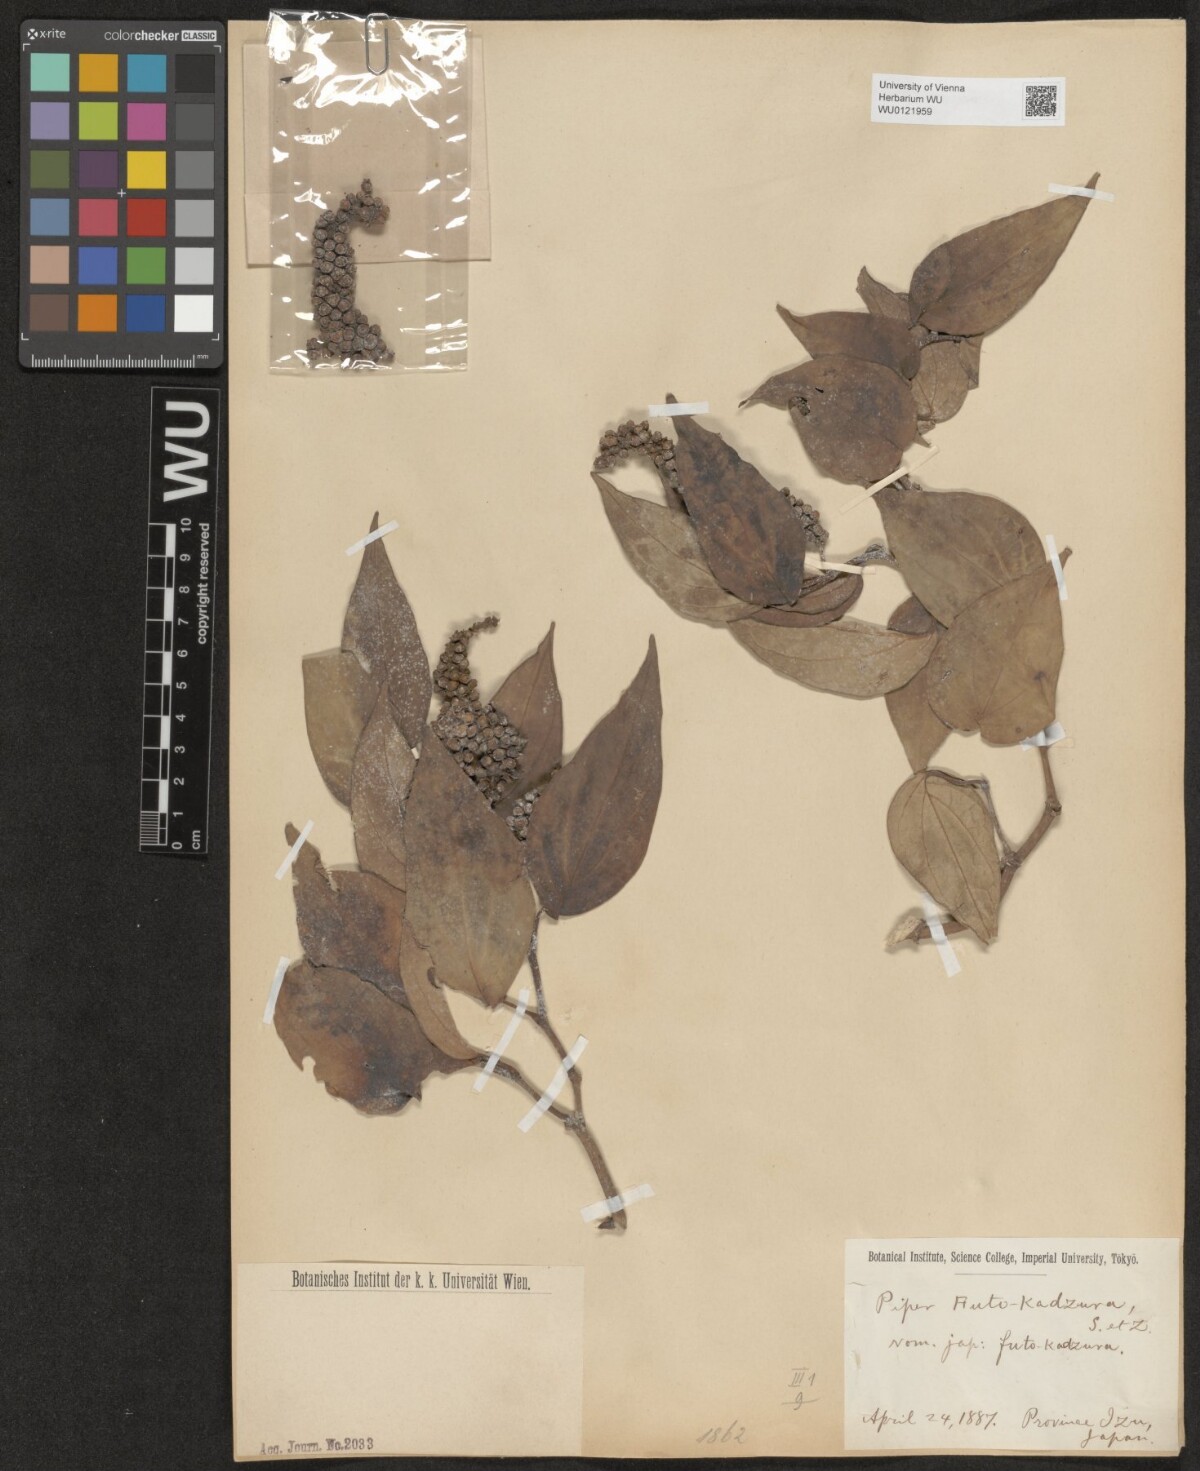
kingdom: Plantae
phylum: Tracheophyta
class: Magnoliopsida
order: Piperales
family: Piperaceae
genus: Piper
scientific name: Piper kadsura
